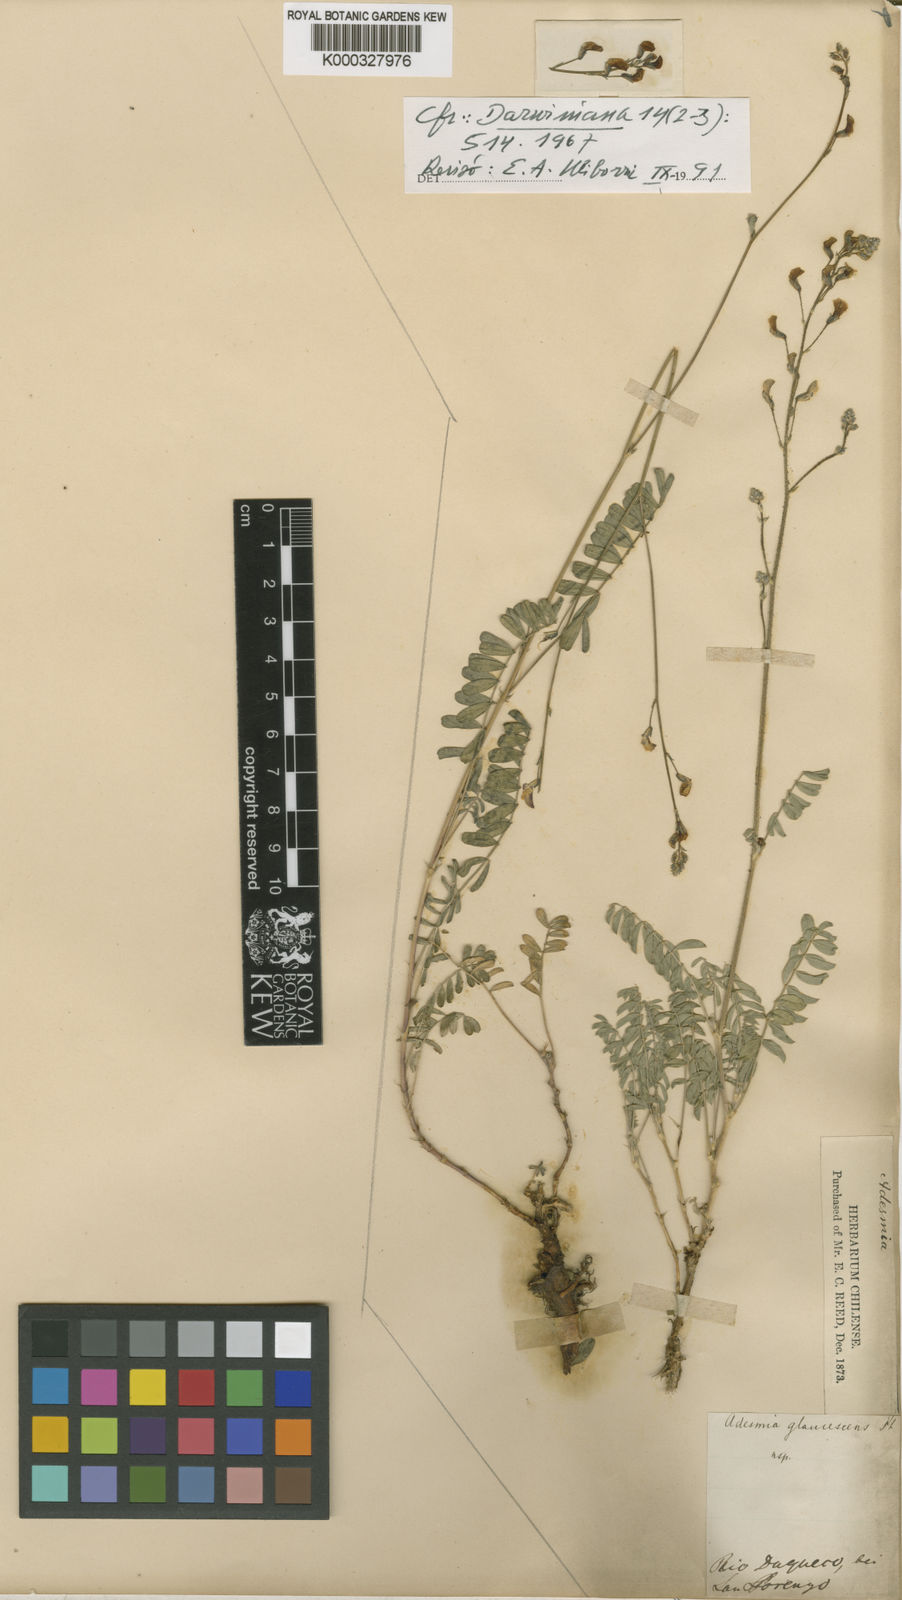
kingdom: Plantae
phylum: Tracheophyta
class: Magnoliopsida
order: Fabales
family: Fabaceae
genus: Adesmia
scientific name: Adesmia araucana
